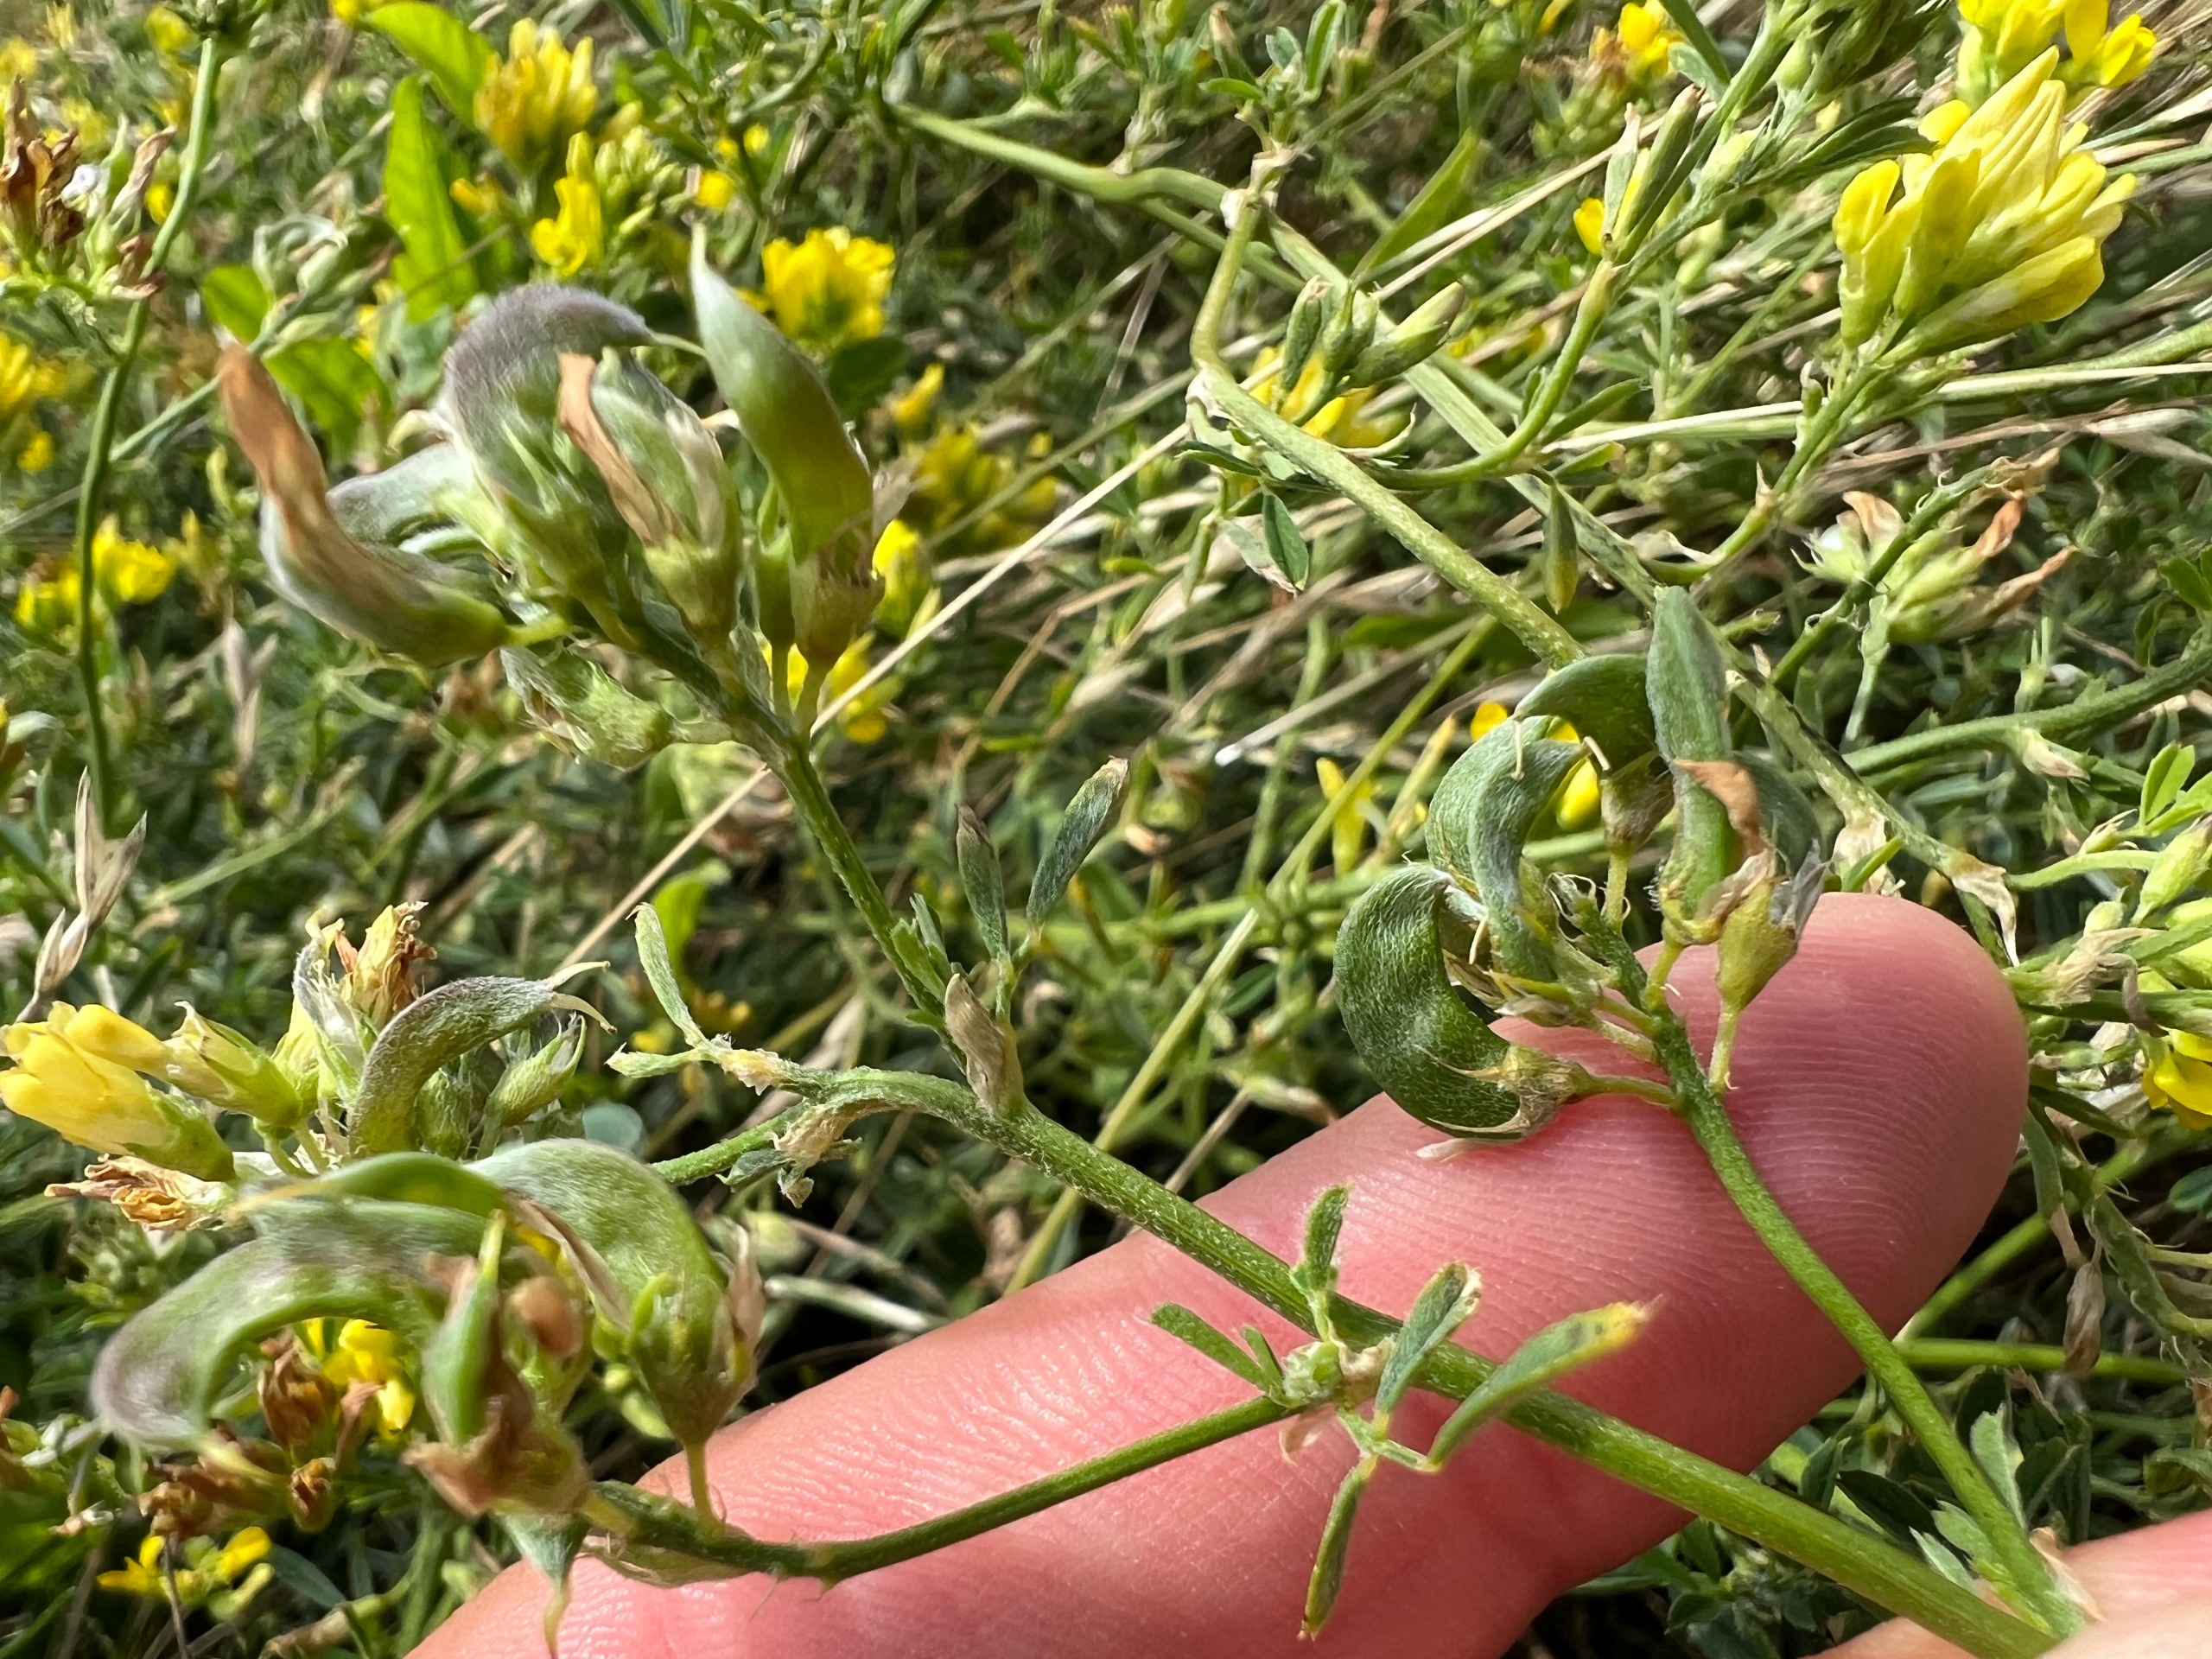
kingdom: Plantae
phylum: Tracheophyta
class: Magnoliopsida
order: Fabales
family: Fabaceae
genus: Medicago
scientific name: Medicago falcata
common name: Segl-sneglebælg
